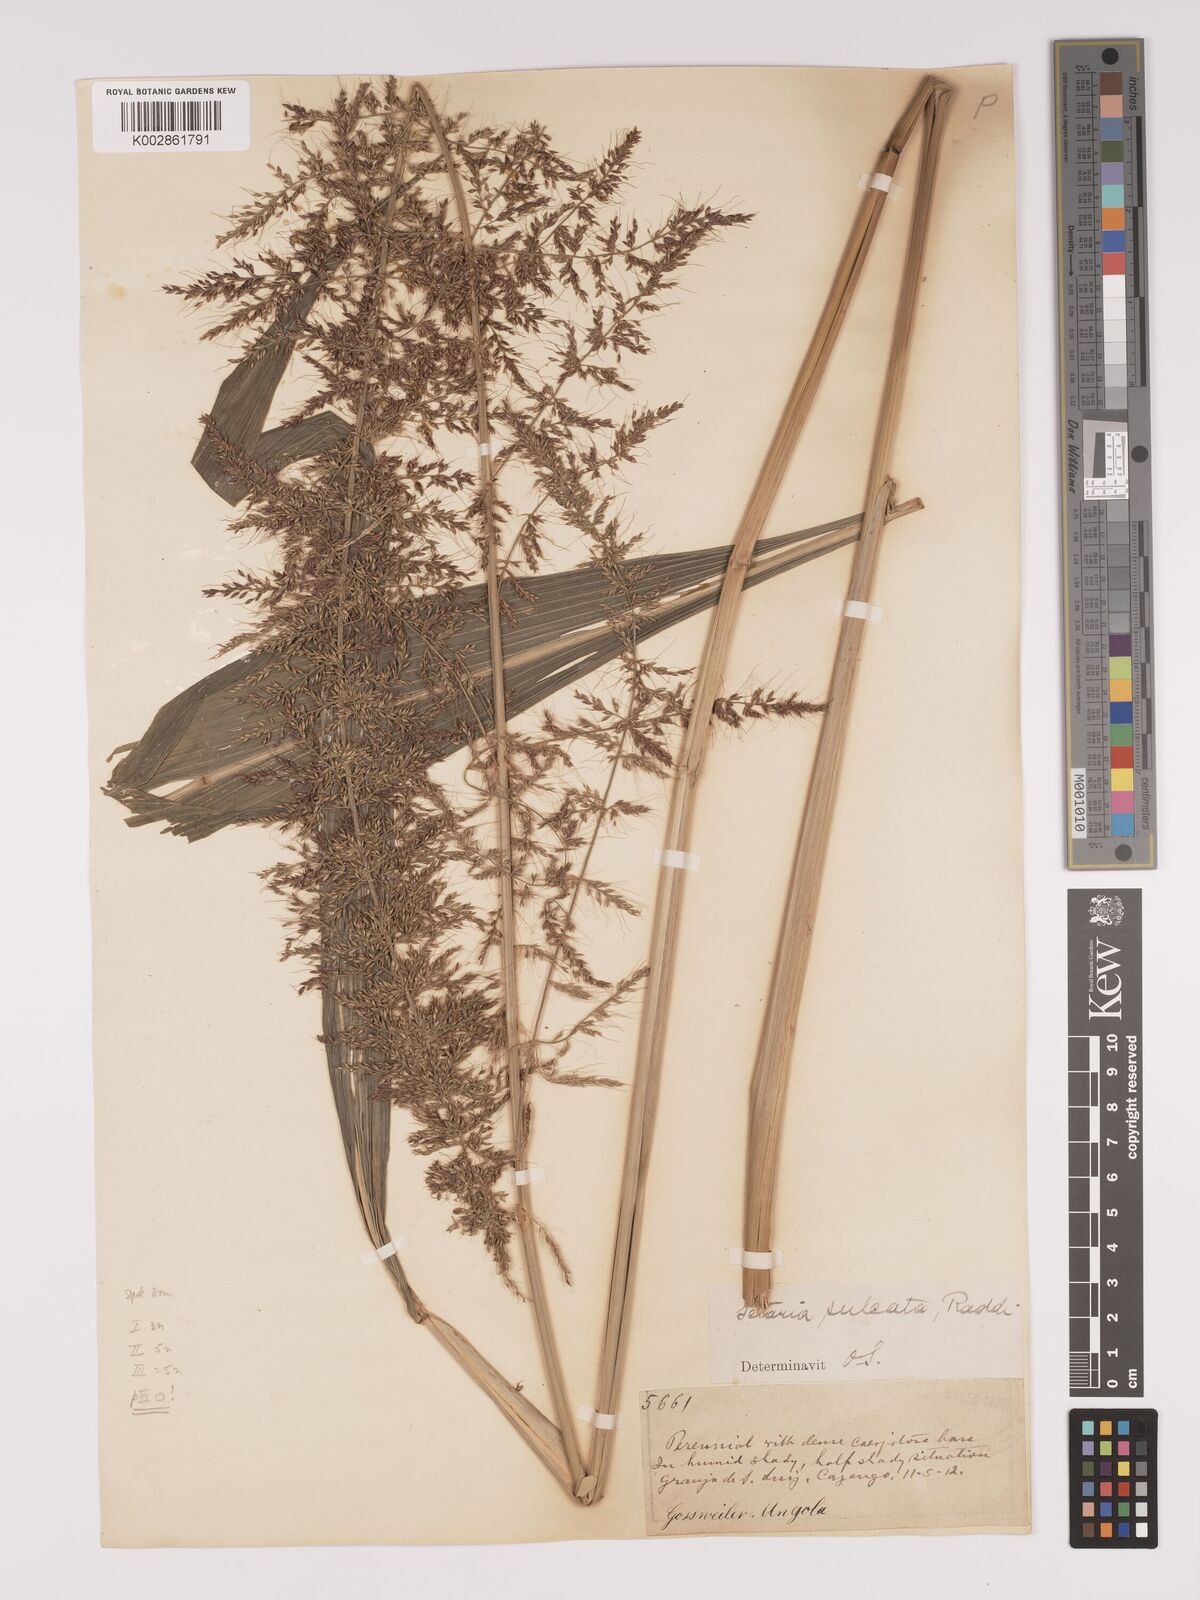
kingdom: Plantae
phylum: Tracheophyta
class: Liliopsida
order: Poales
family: Poaceae
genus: Setaria
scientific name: Setaria megaphylla
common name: Bigleaf bristlegrass
